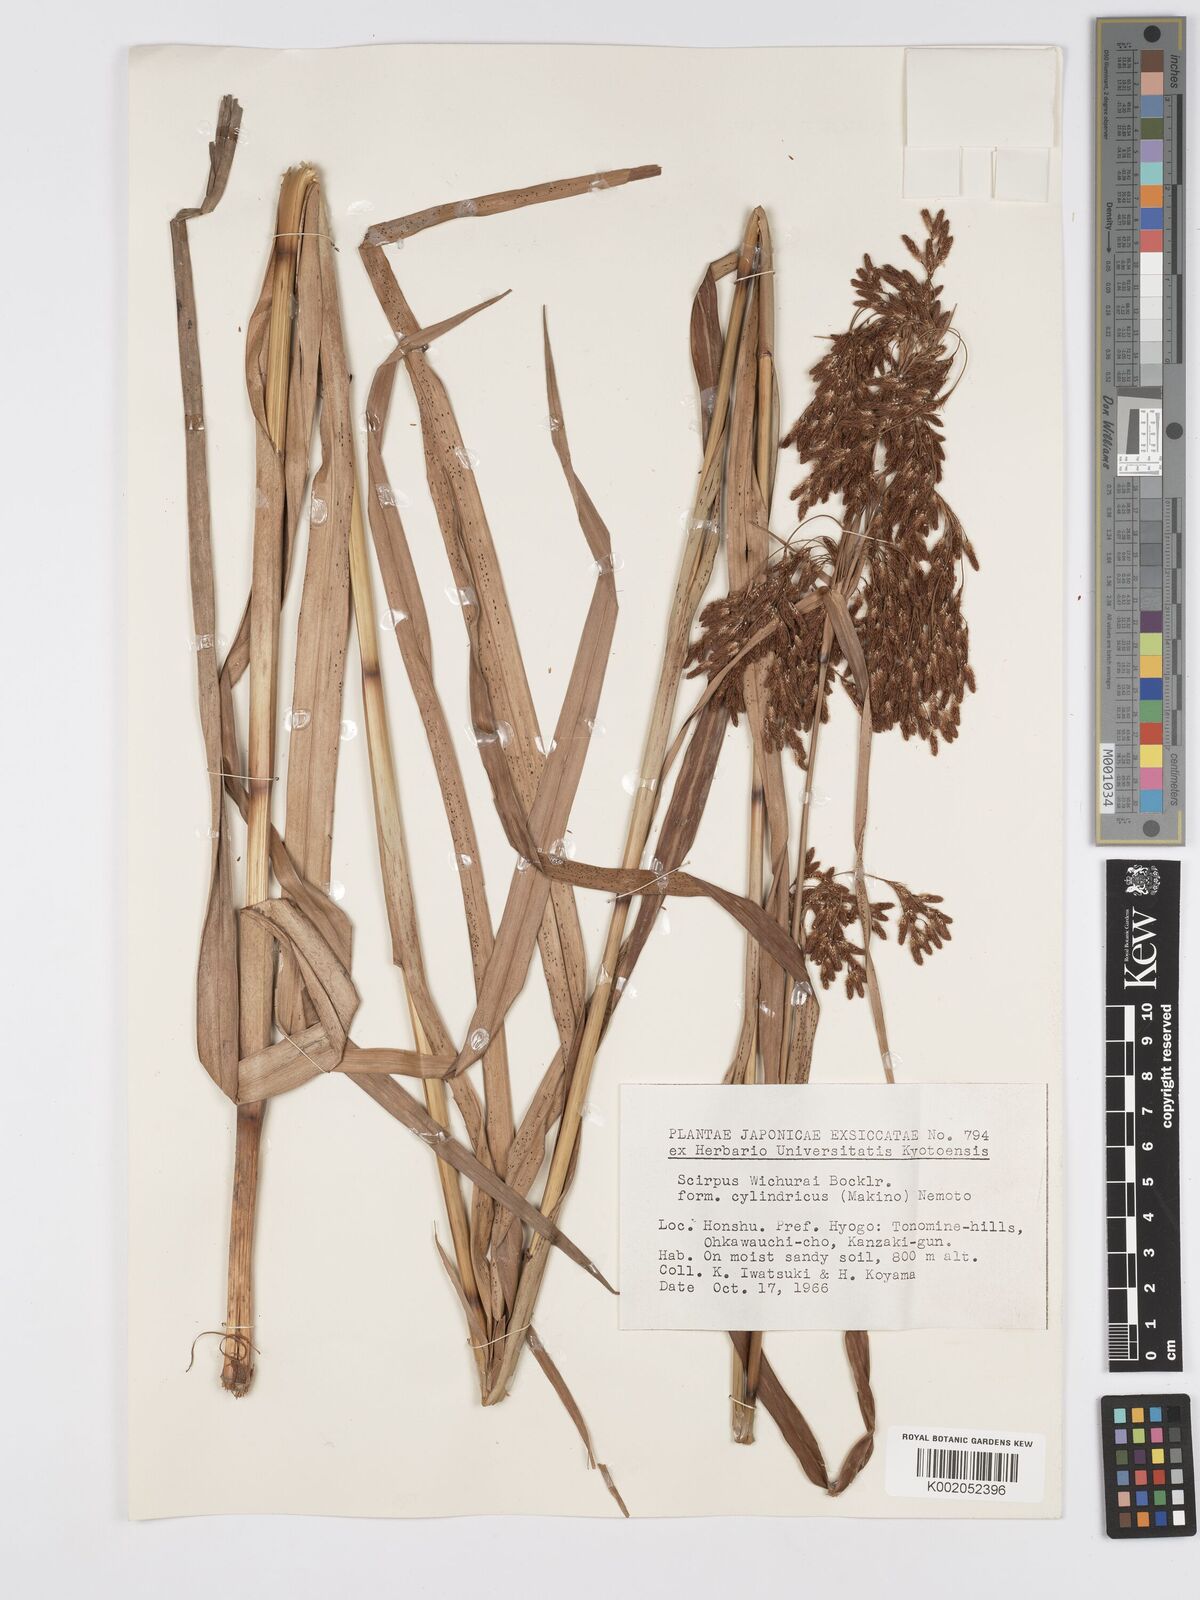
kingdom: Plantae
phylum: Tracheophyta
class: Liliopsida
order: Poales
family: Cyperaceae
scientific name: Cyperaceae
